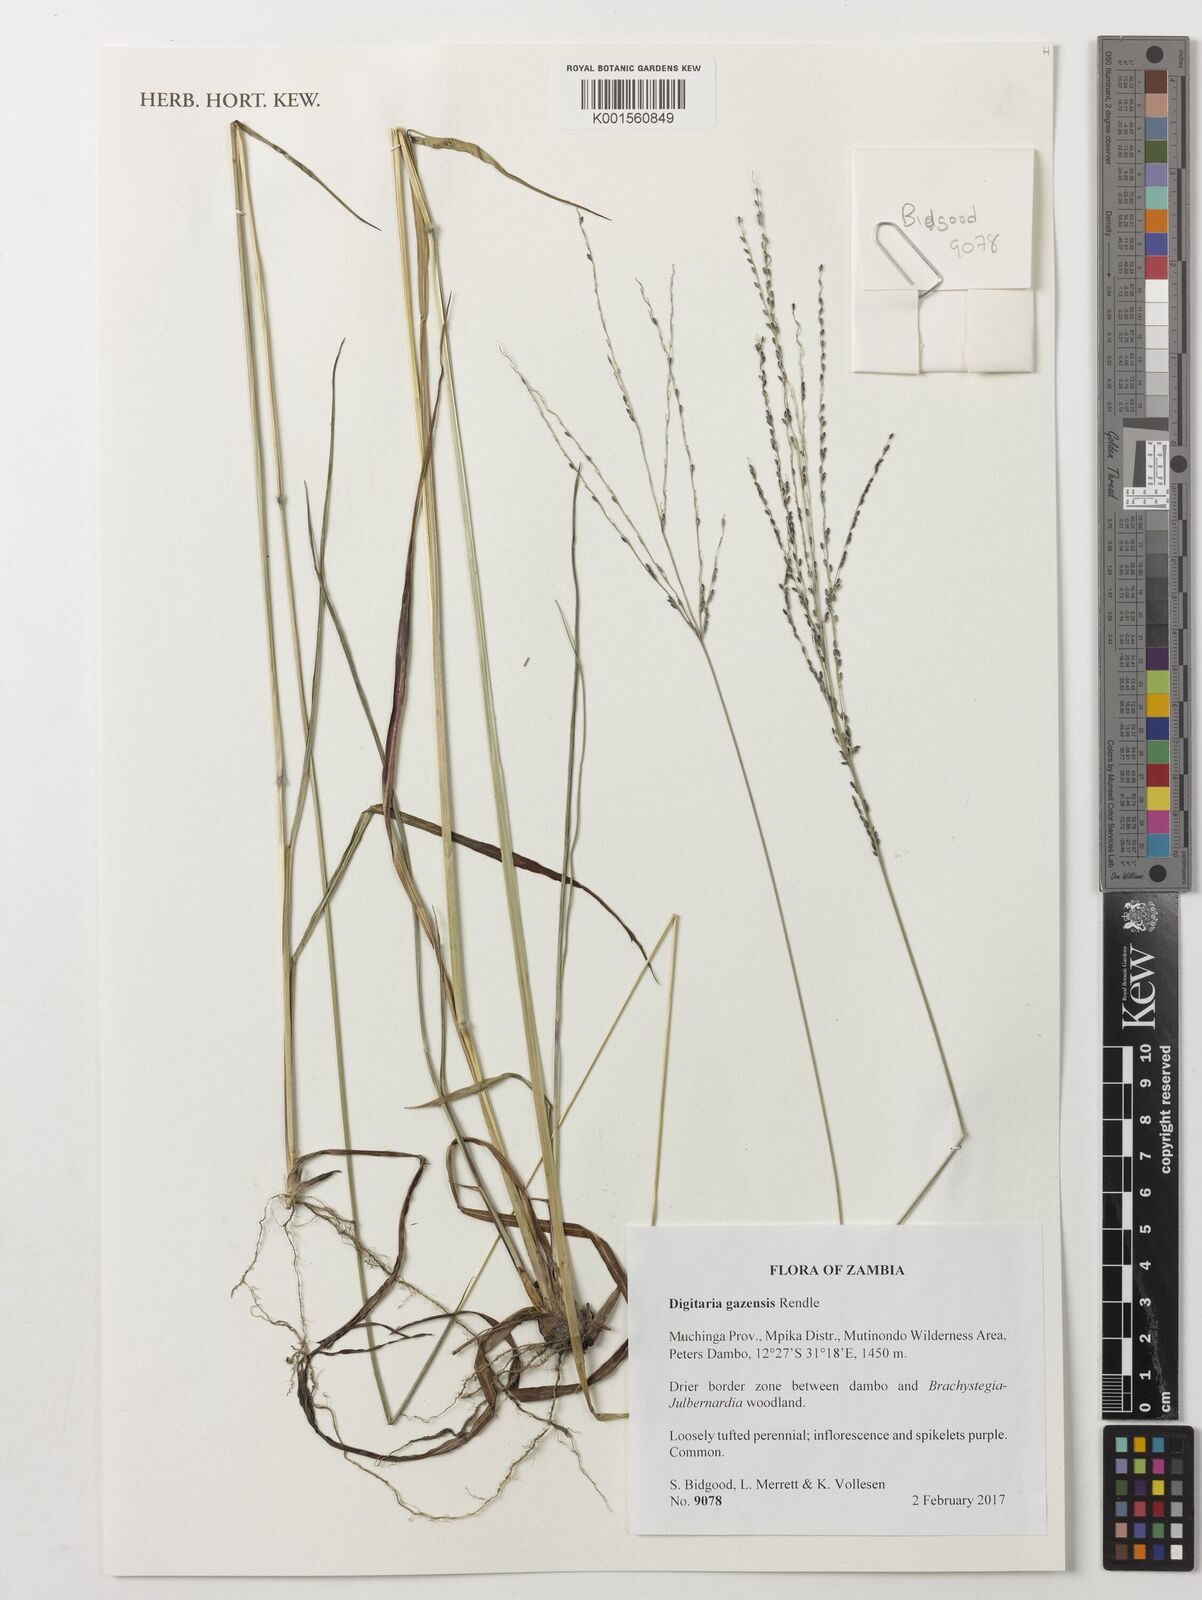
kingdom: Plantae
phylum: Tracheophyta
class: Liliopsida
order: Poales
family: Poaceae
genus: Digitaria
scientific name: Digitaria gazensis
